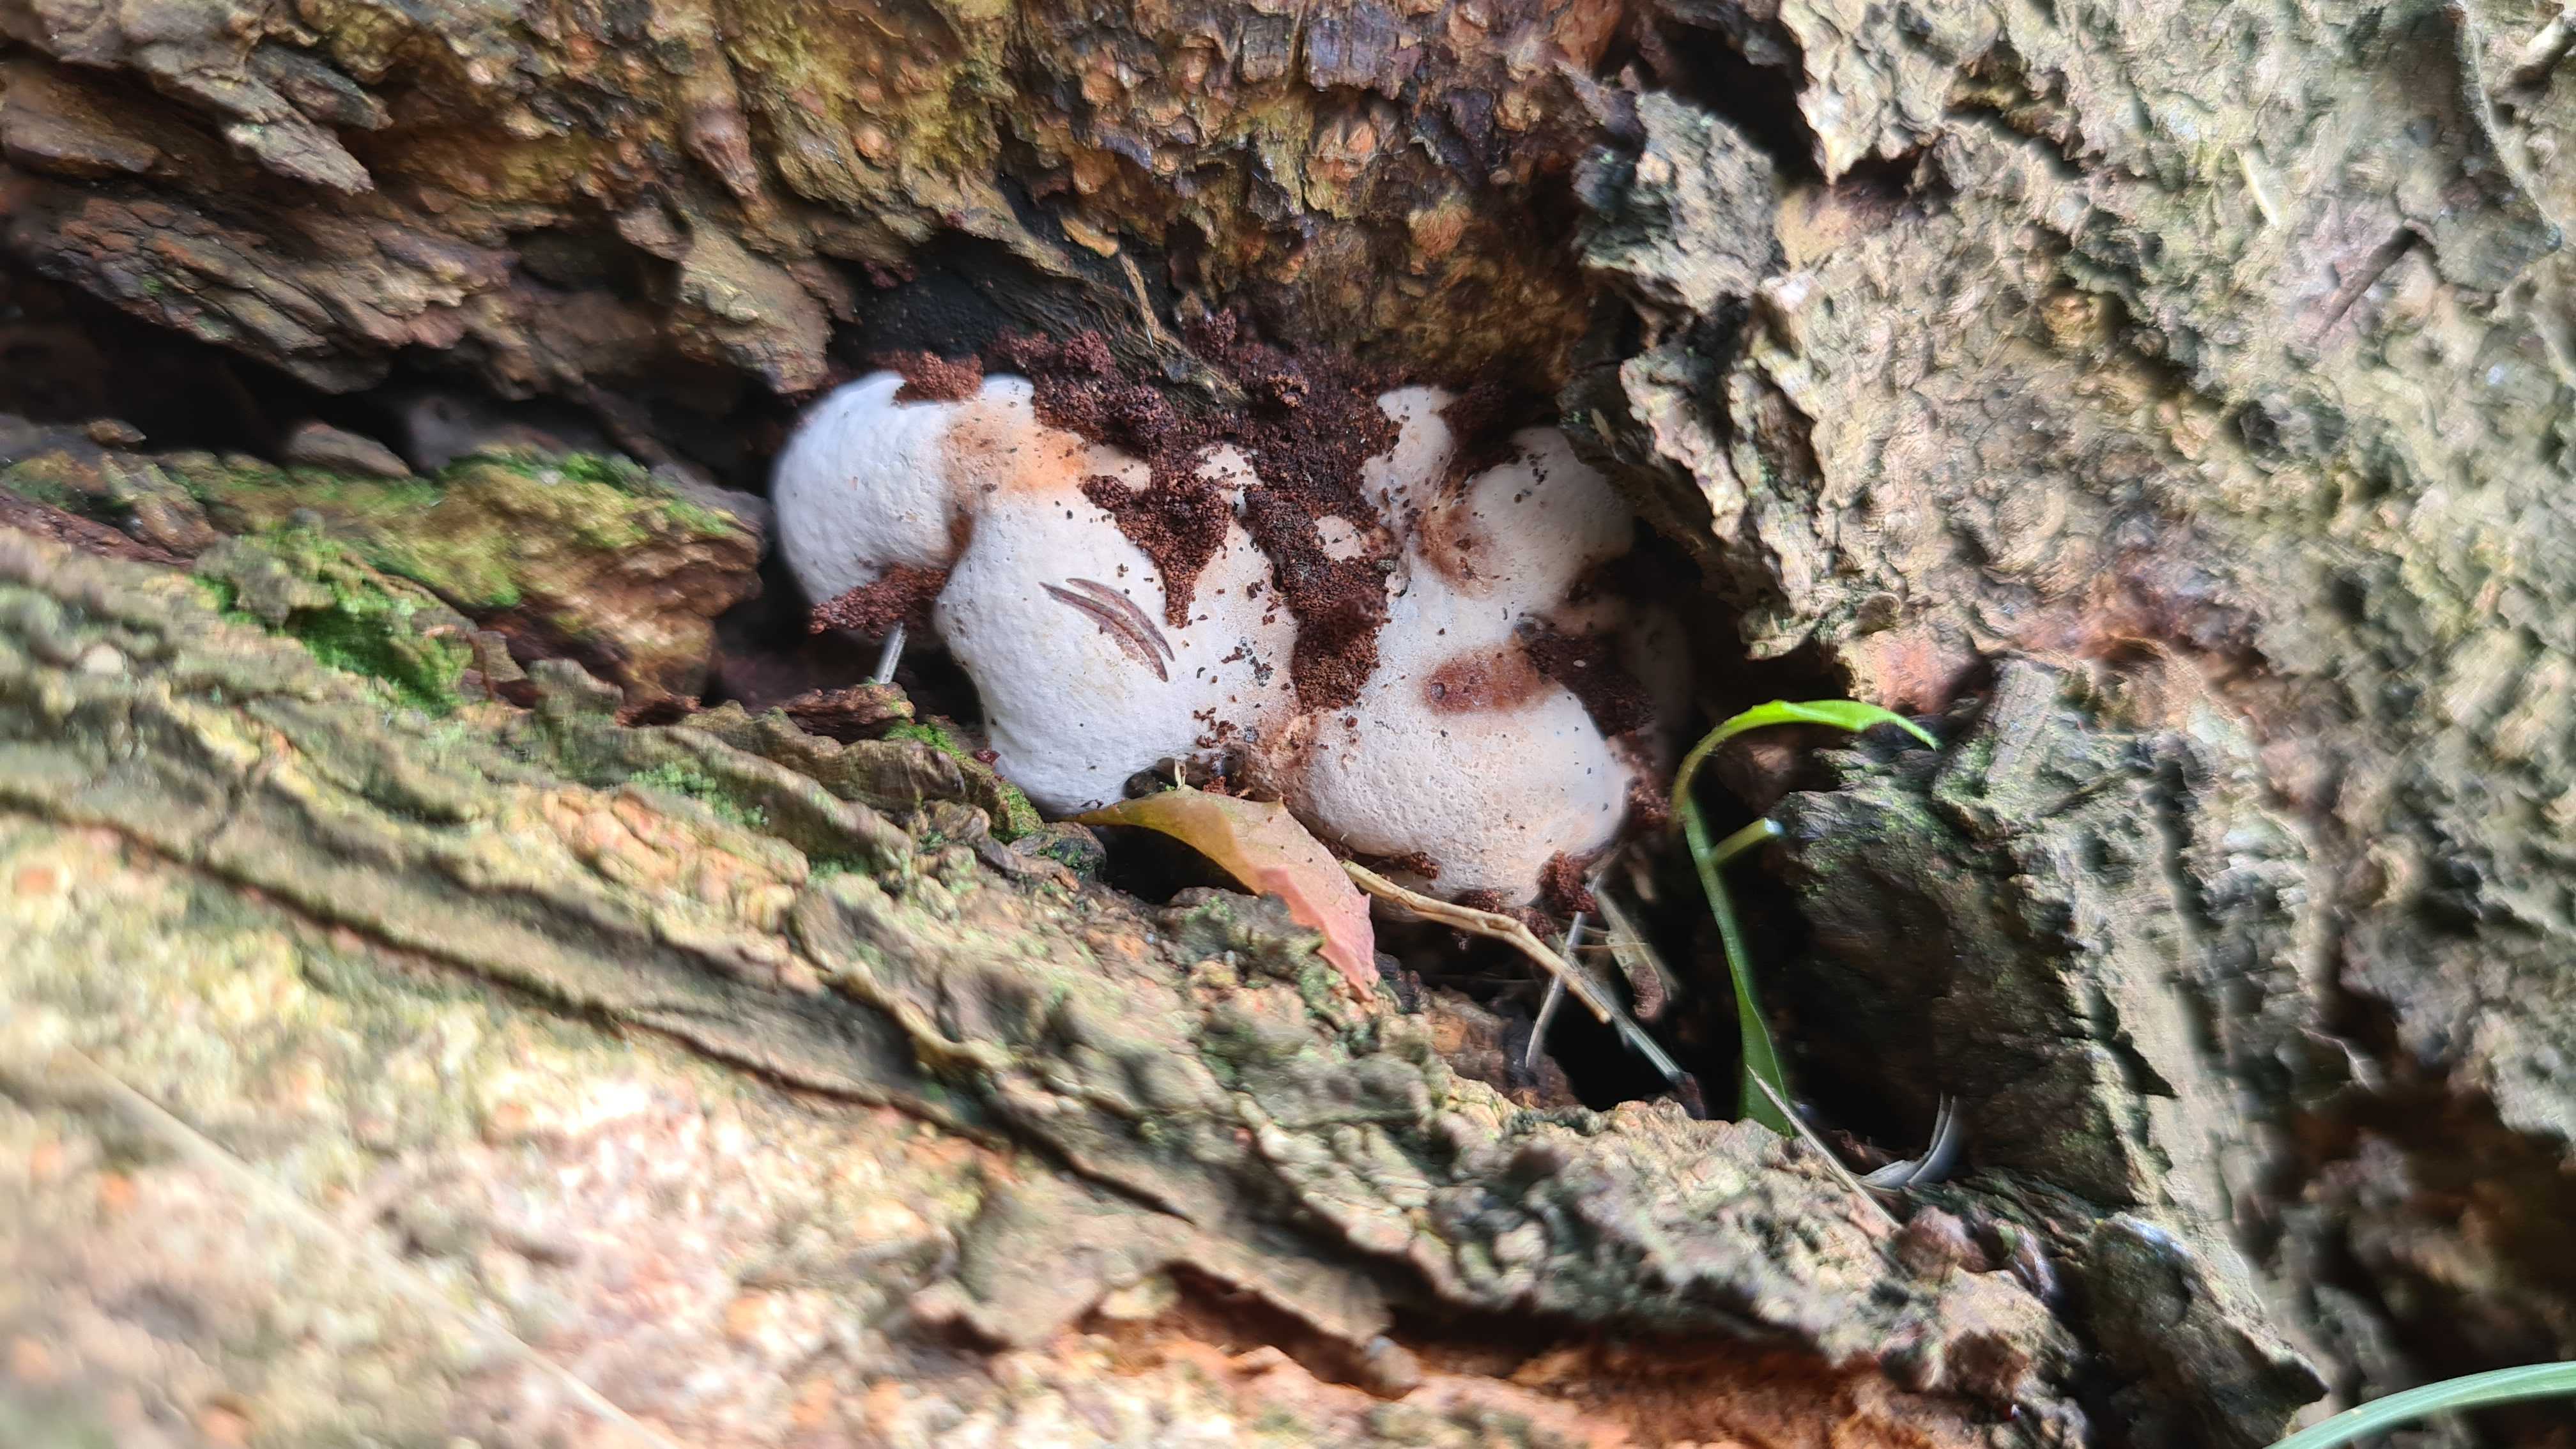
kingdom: Fungi
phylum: Basidiomycota
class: Agaricomycetes
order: Polyporales
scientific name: Polyporales
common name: poresvampordenen
